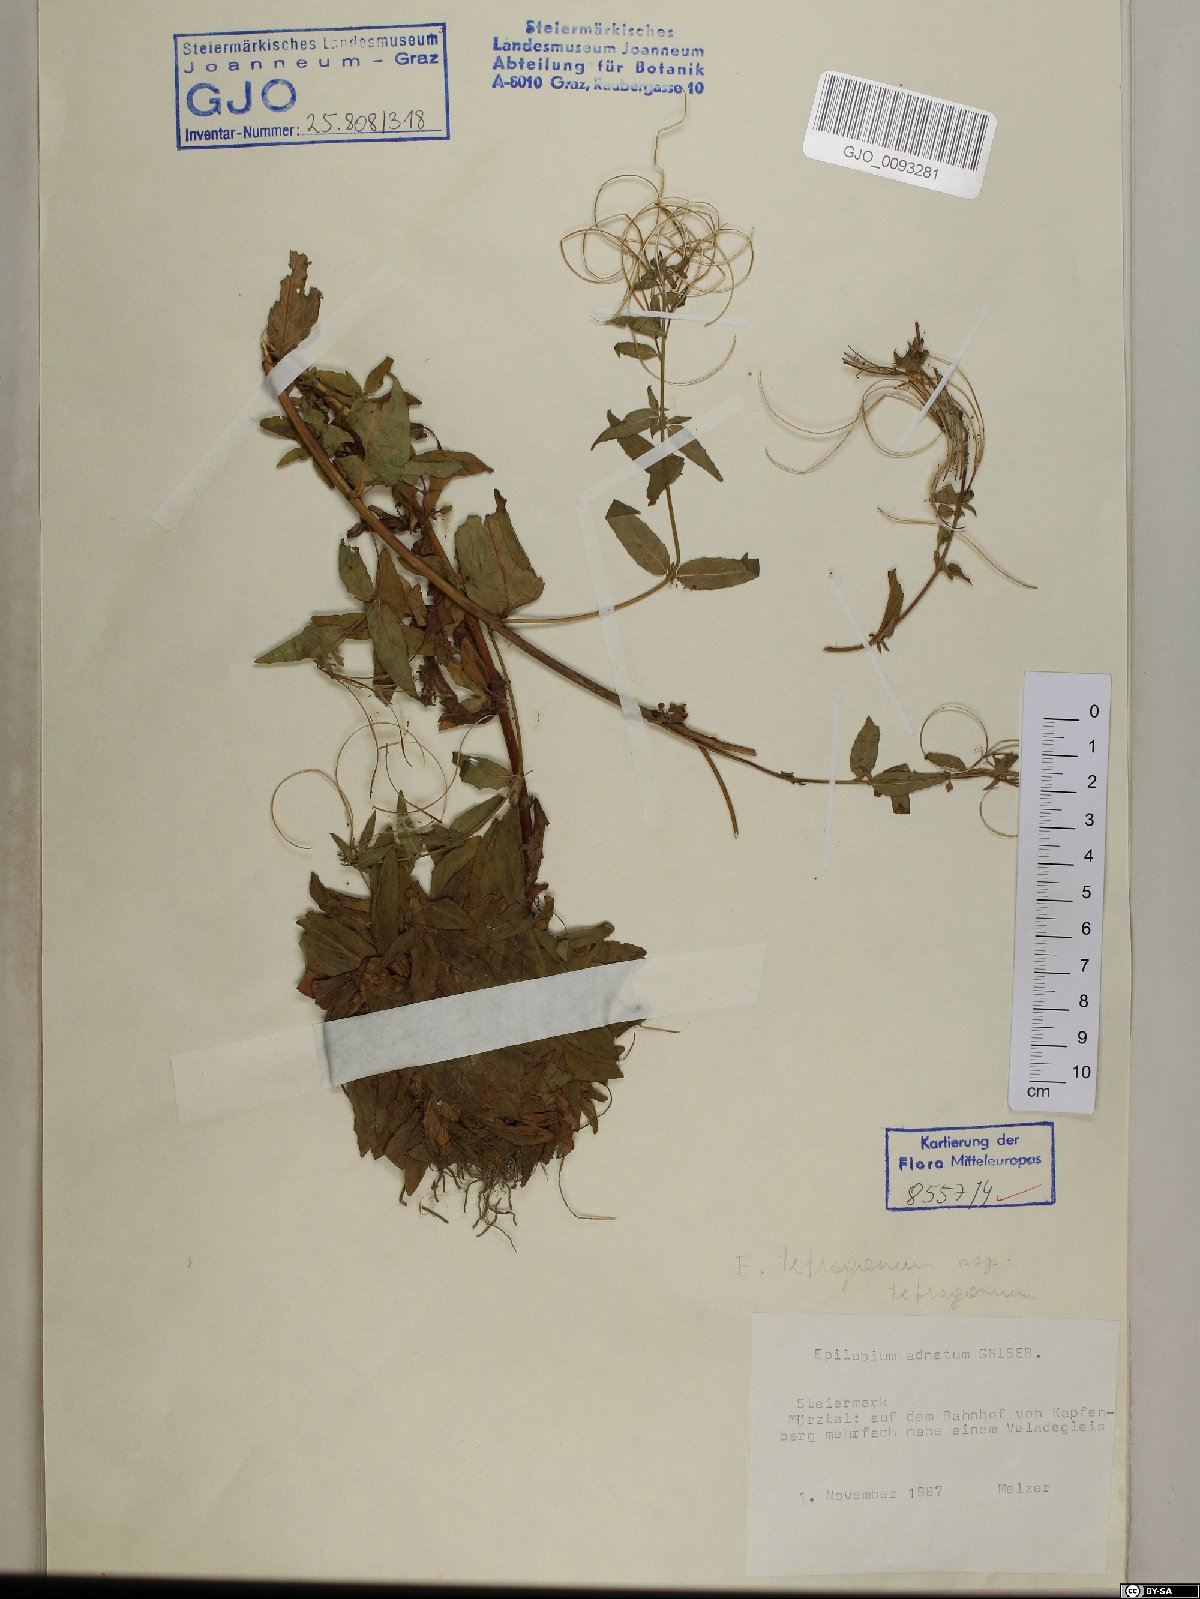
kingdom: Plantae
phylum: Tracheophyta
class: Magnoliopsida
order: Myrtales
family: Onagraceae
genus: Epilobium
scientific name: Epilobium tetragonum
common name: Square-stemmed willowherb
